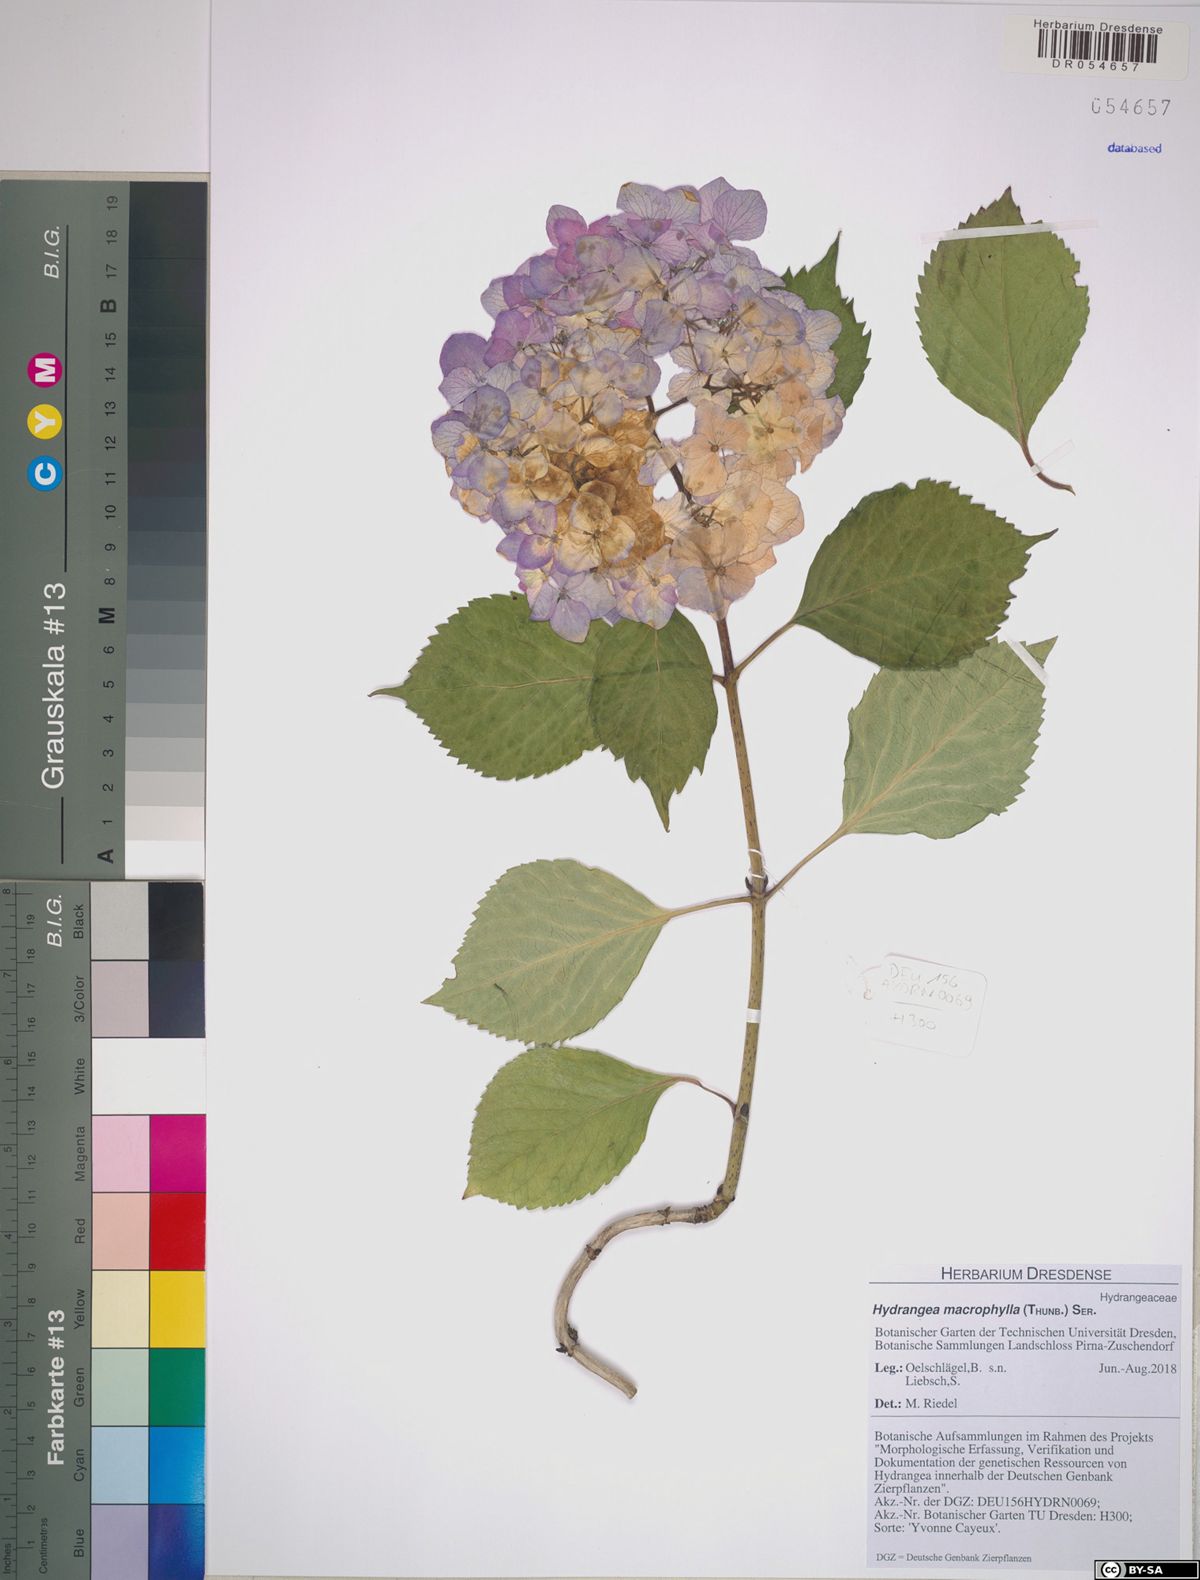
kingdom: Plantae
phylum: Tracheophyta
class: Magnoliopsida
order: Cornales
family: Hydrangeaceae
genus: Hydrangea
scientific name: Hydrangea macrophylla
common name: Hydrangea
